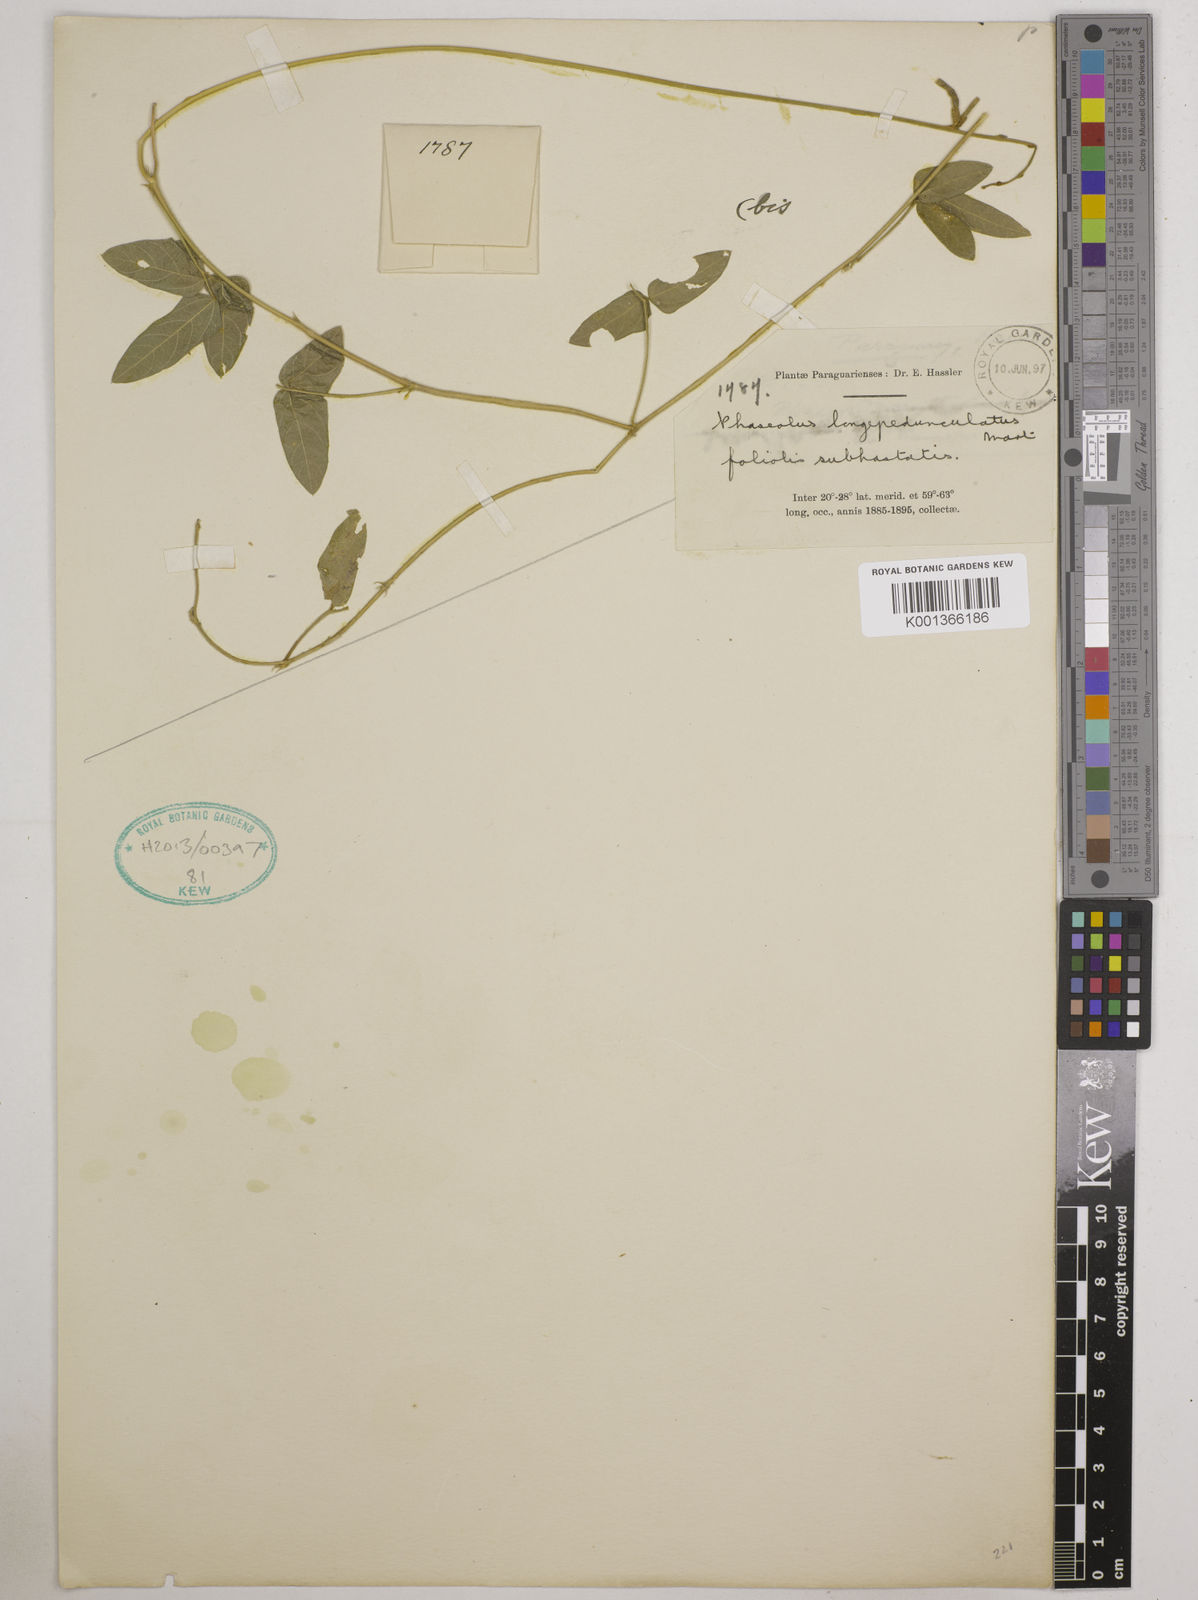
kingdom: Plantae
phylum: Tracheophyta
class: Magnoliopsida
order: Fabales
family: Fabaceae
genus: Macroptilium
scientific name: Macroptilium longepedunculatum
